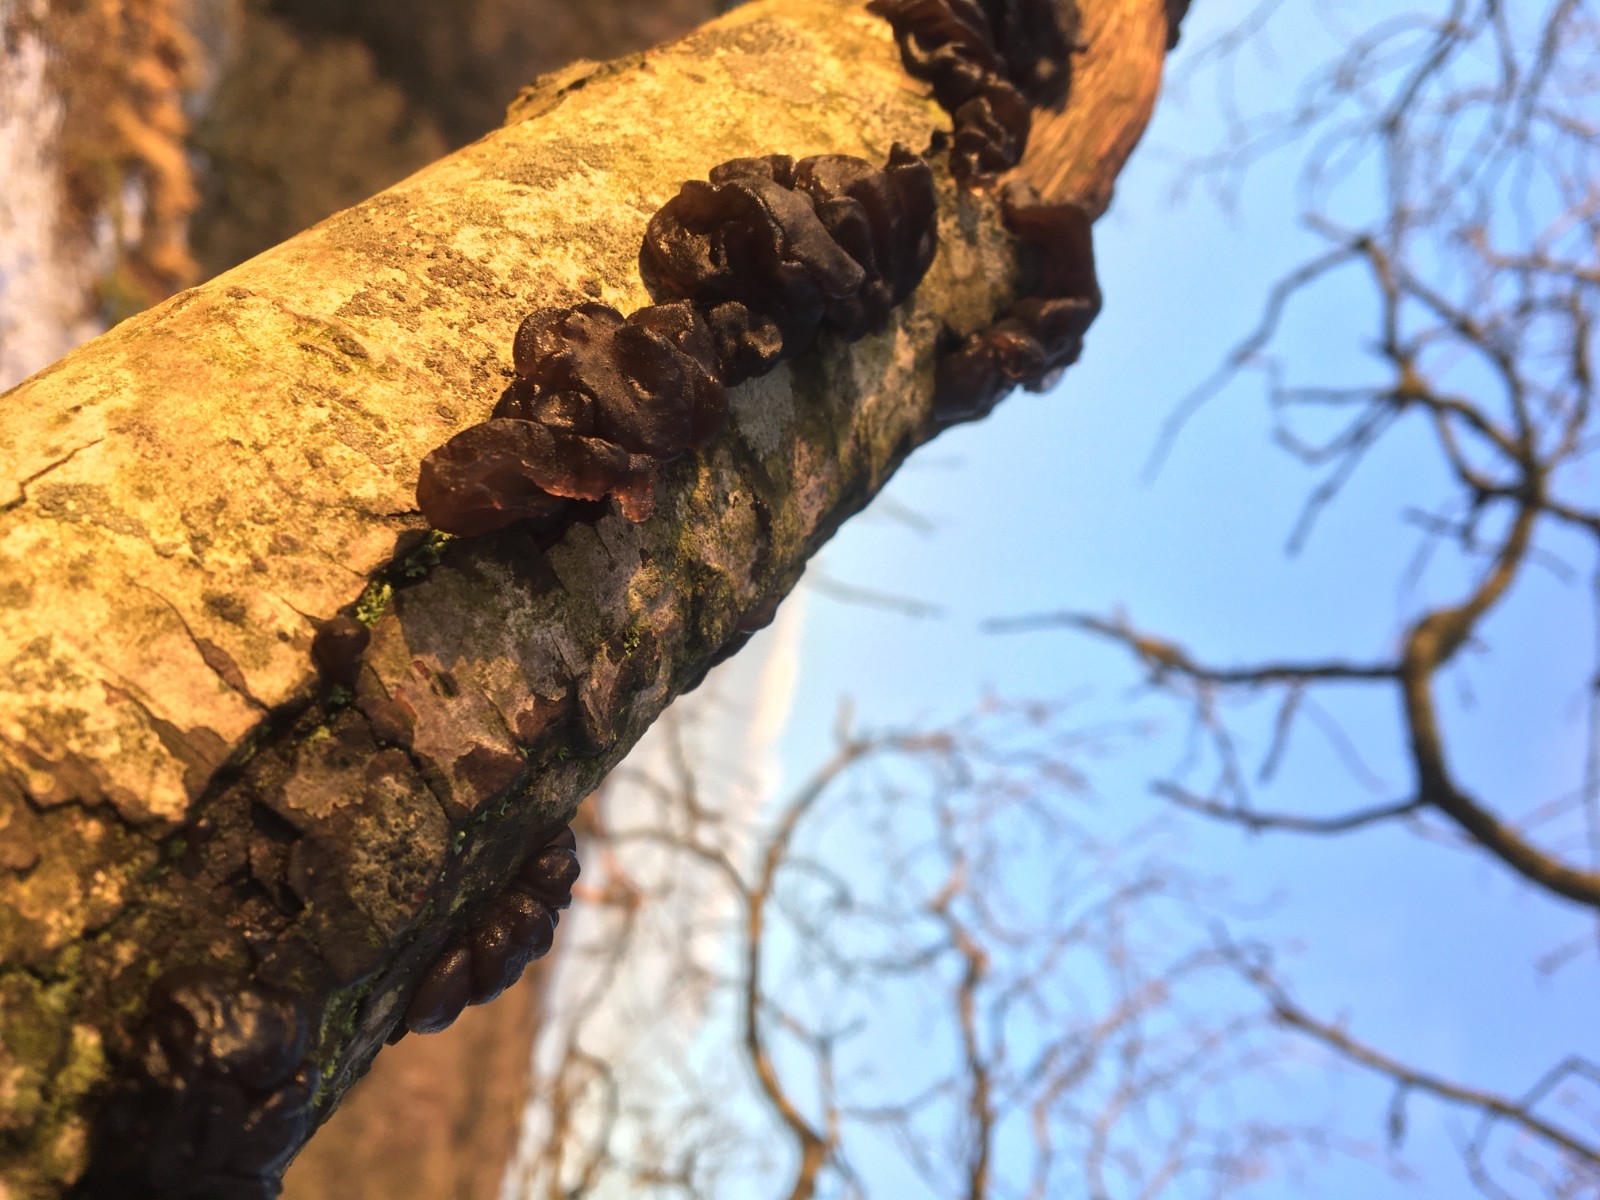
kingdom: Fungi
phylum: Basidiomycota
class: Agaricomycetes
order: Auriculariales
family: Auriculariaceae
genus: Exidia
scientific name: Exidia glandulosa
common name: ege-bævretop
